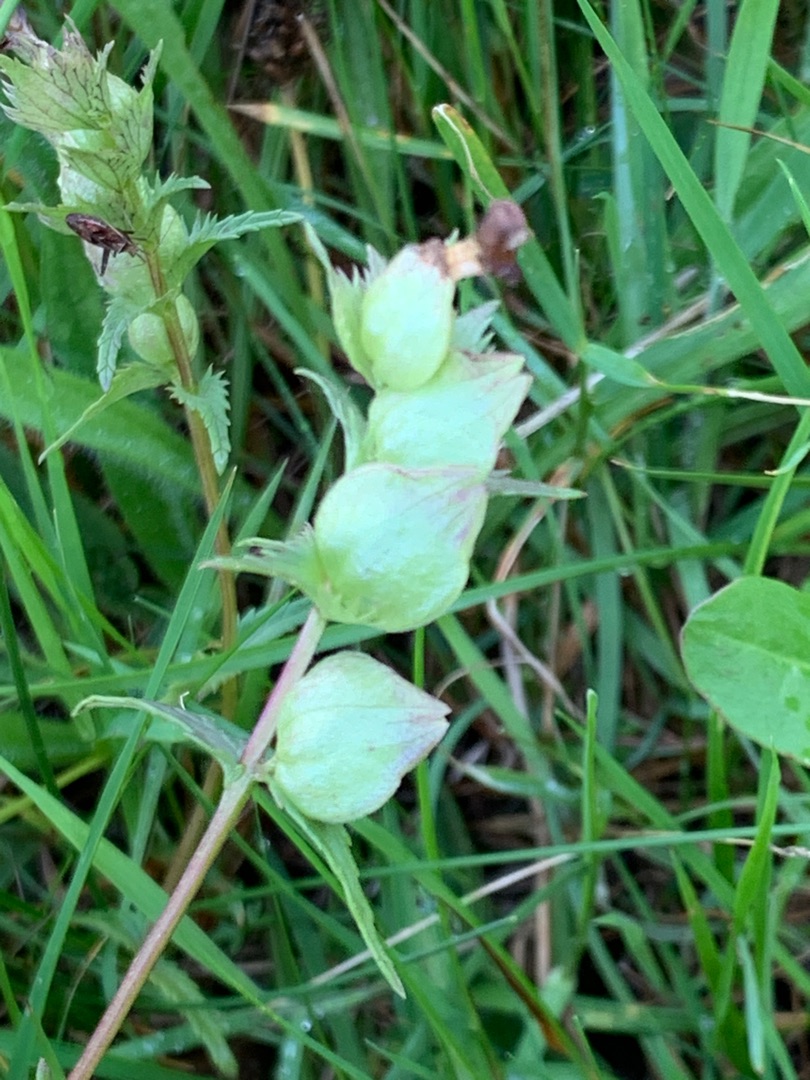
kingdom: Plantae
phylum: Tracheophyta
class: Magnoliopsida
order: Lamiales
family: Orobanchaceae
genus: Rhinanthus
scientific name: Rhinanthus minor
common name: Liden skjaller
